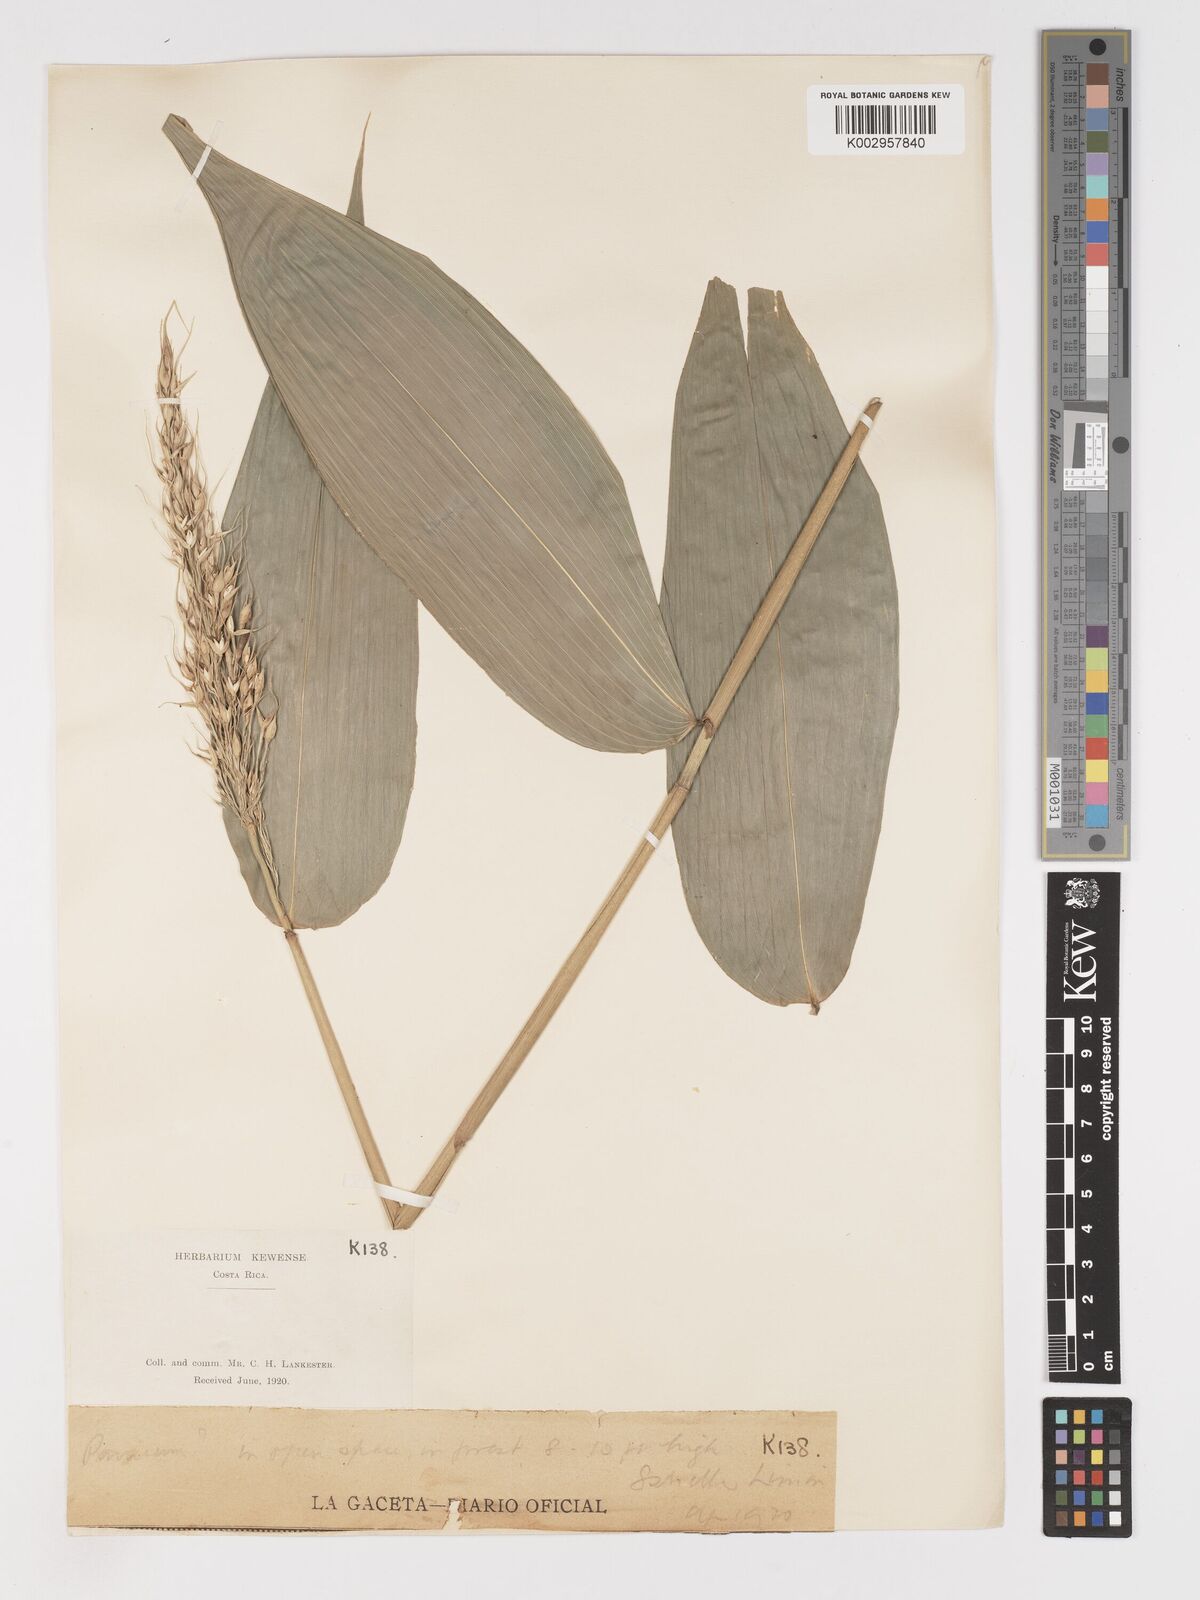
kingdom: Plantae
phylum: Tracheophyta
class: Liliopsida
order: Poales
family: Poaceae
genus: Olyra
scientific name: Olyra latifolia
